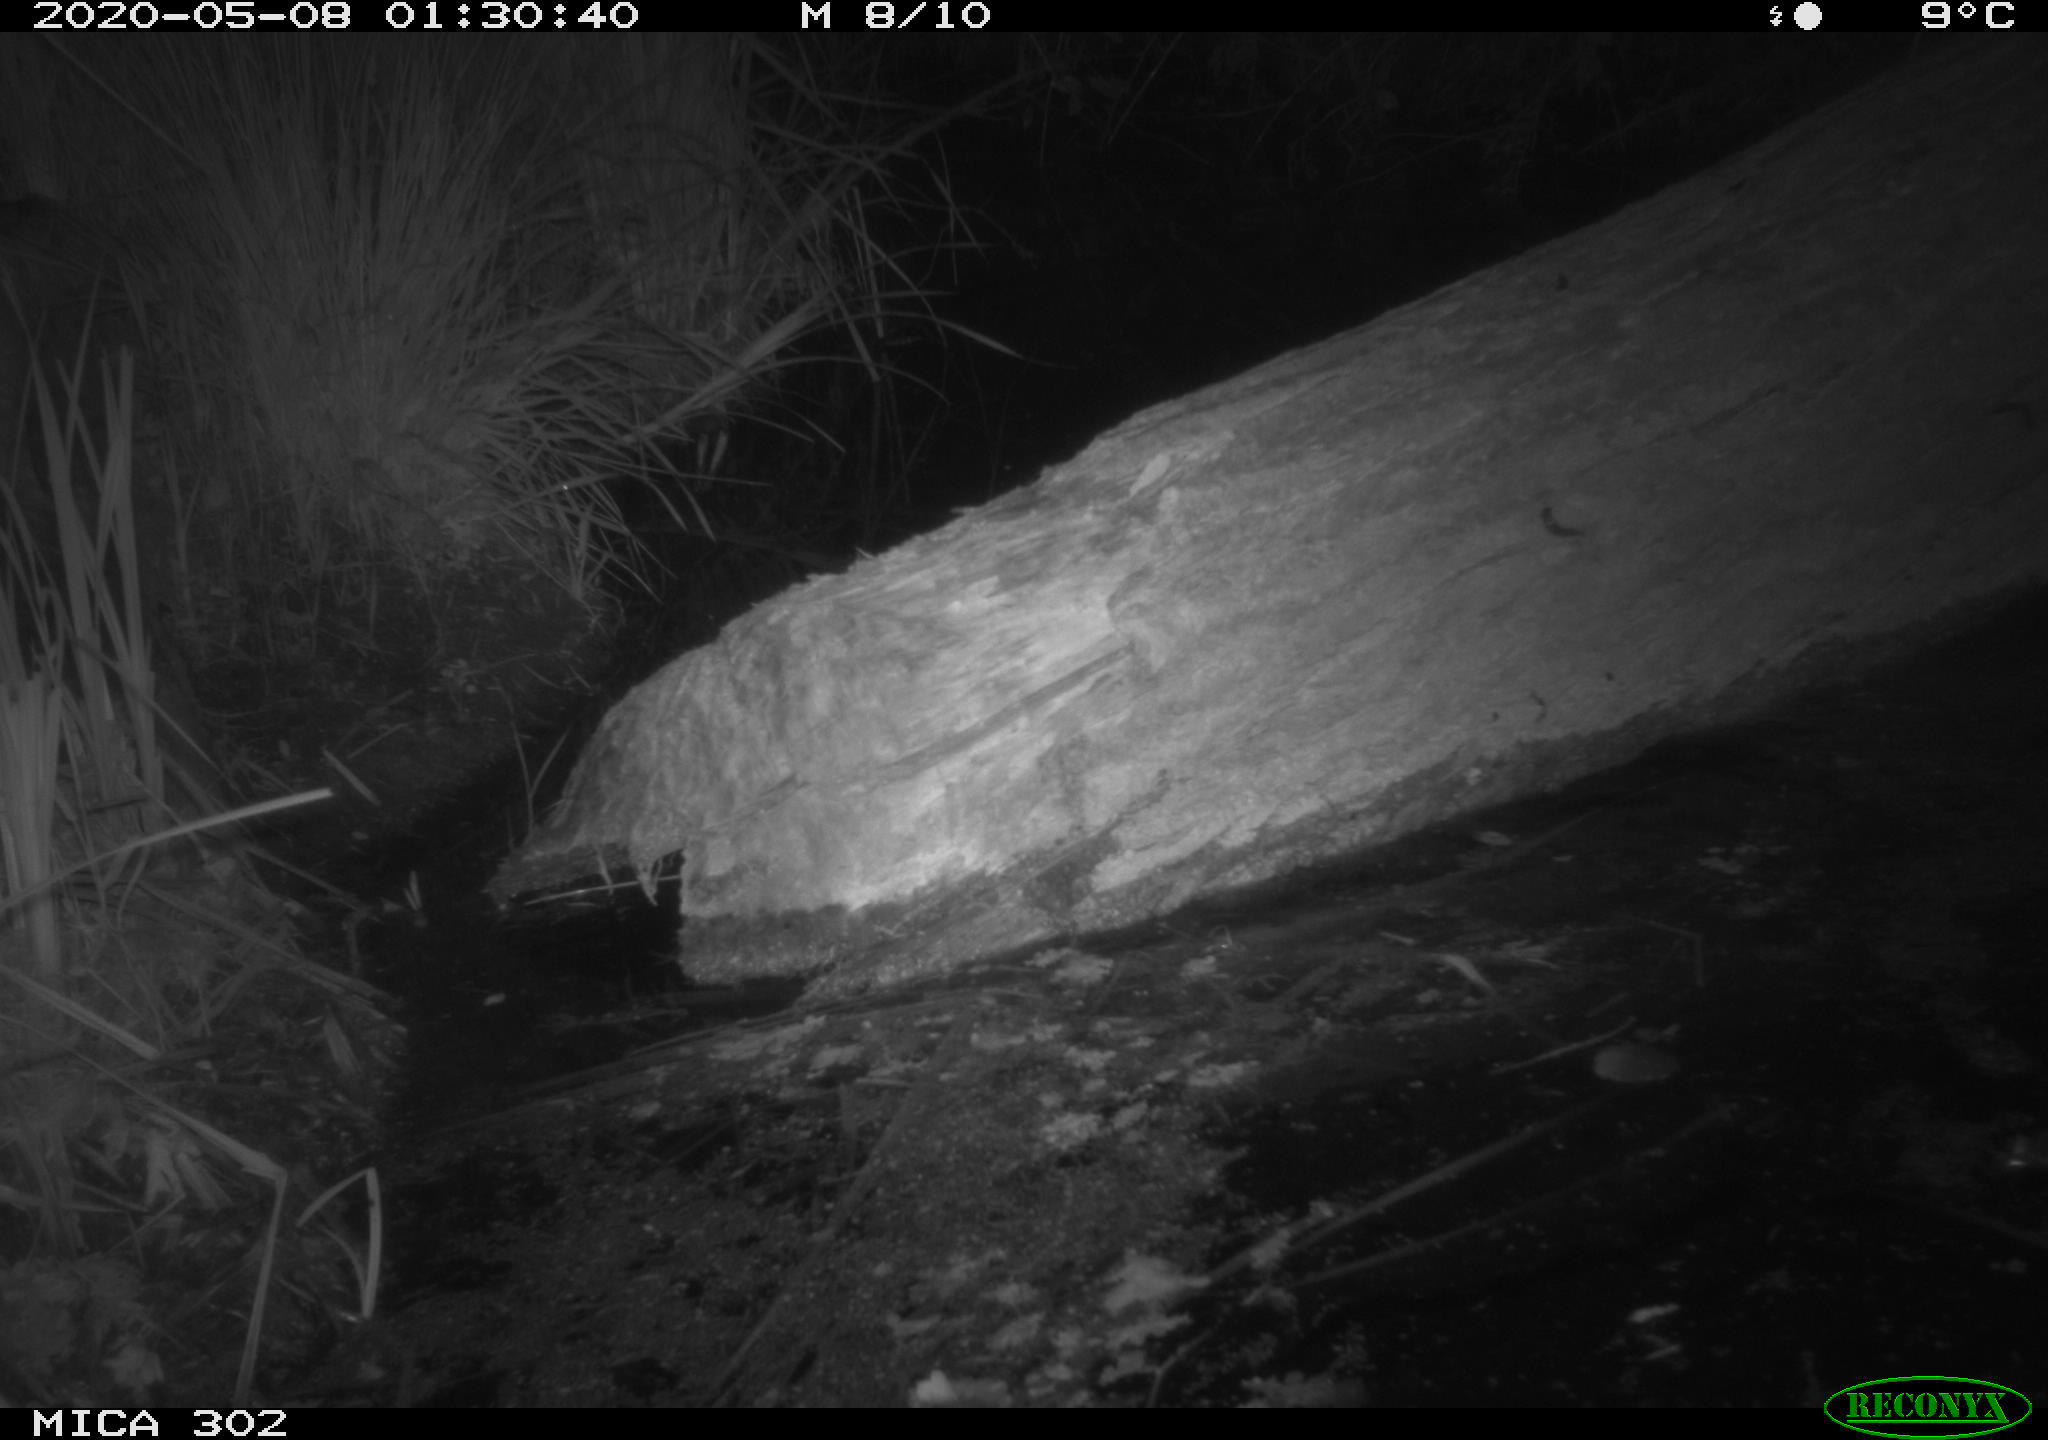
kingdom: Animalia
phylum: Chordata
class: Mammalia
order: Carnivora
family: Mustelidae
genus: Martes
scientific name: Martes foina
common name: Beech marten
